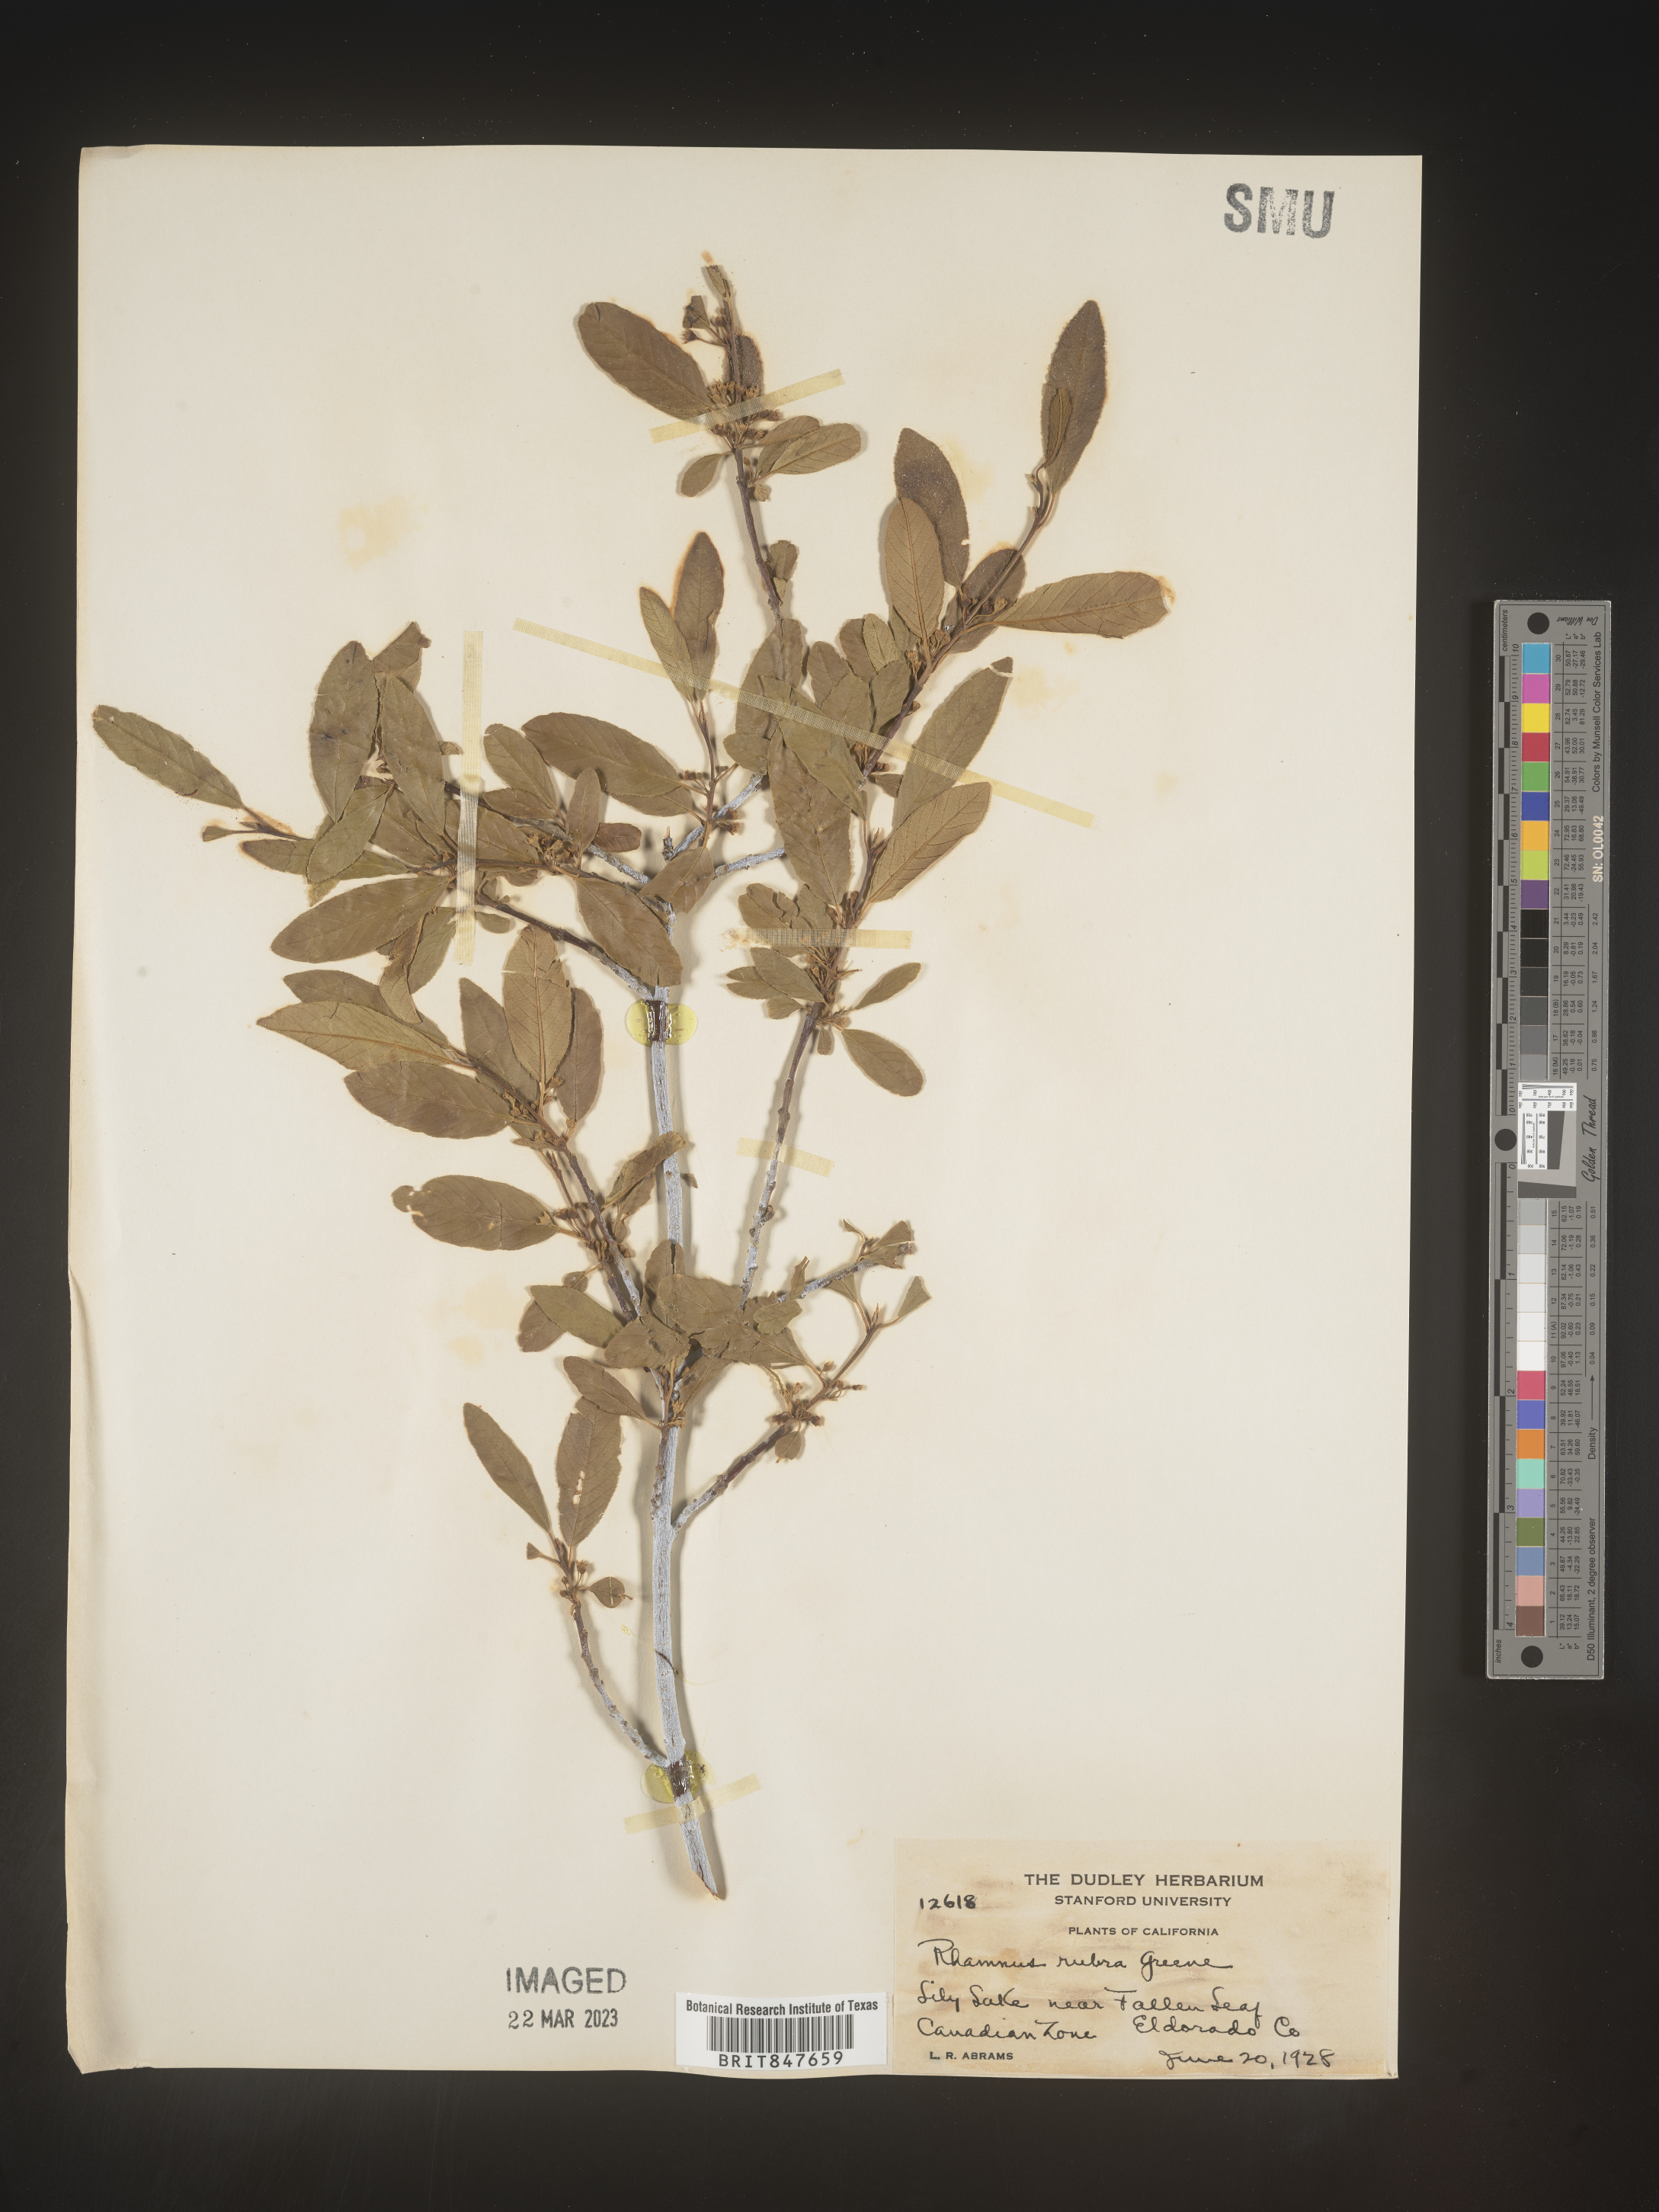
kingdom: Plantae
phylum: Tracheophyta
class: Magnoliopsida
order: Rosales
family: Rhamnaceae
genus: Rhamnus
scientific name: Rhamnus
